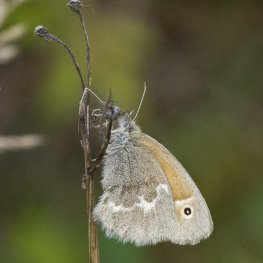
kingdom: Animalia
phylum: Arthropoda
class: Insecta
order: Lepidoptera
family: Nymphalidae
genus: Coenonympha
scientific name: Coenonympha tullia
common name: Large Heath
